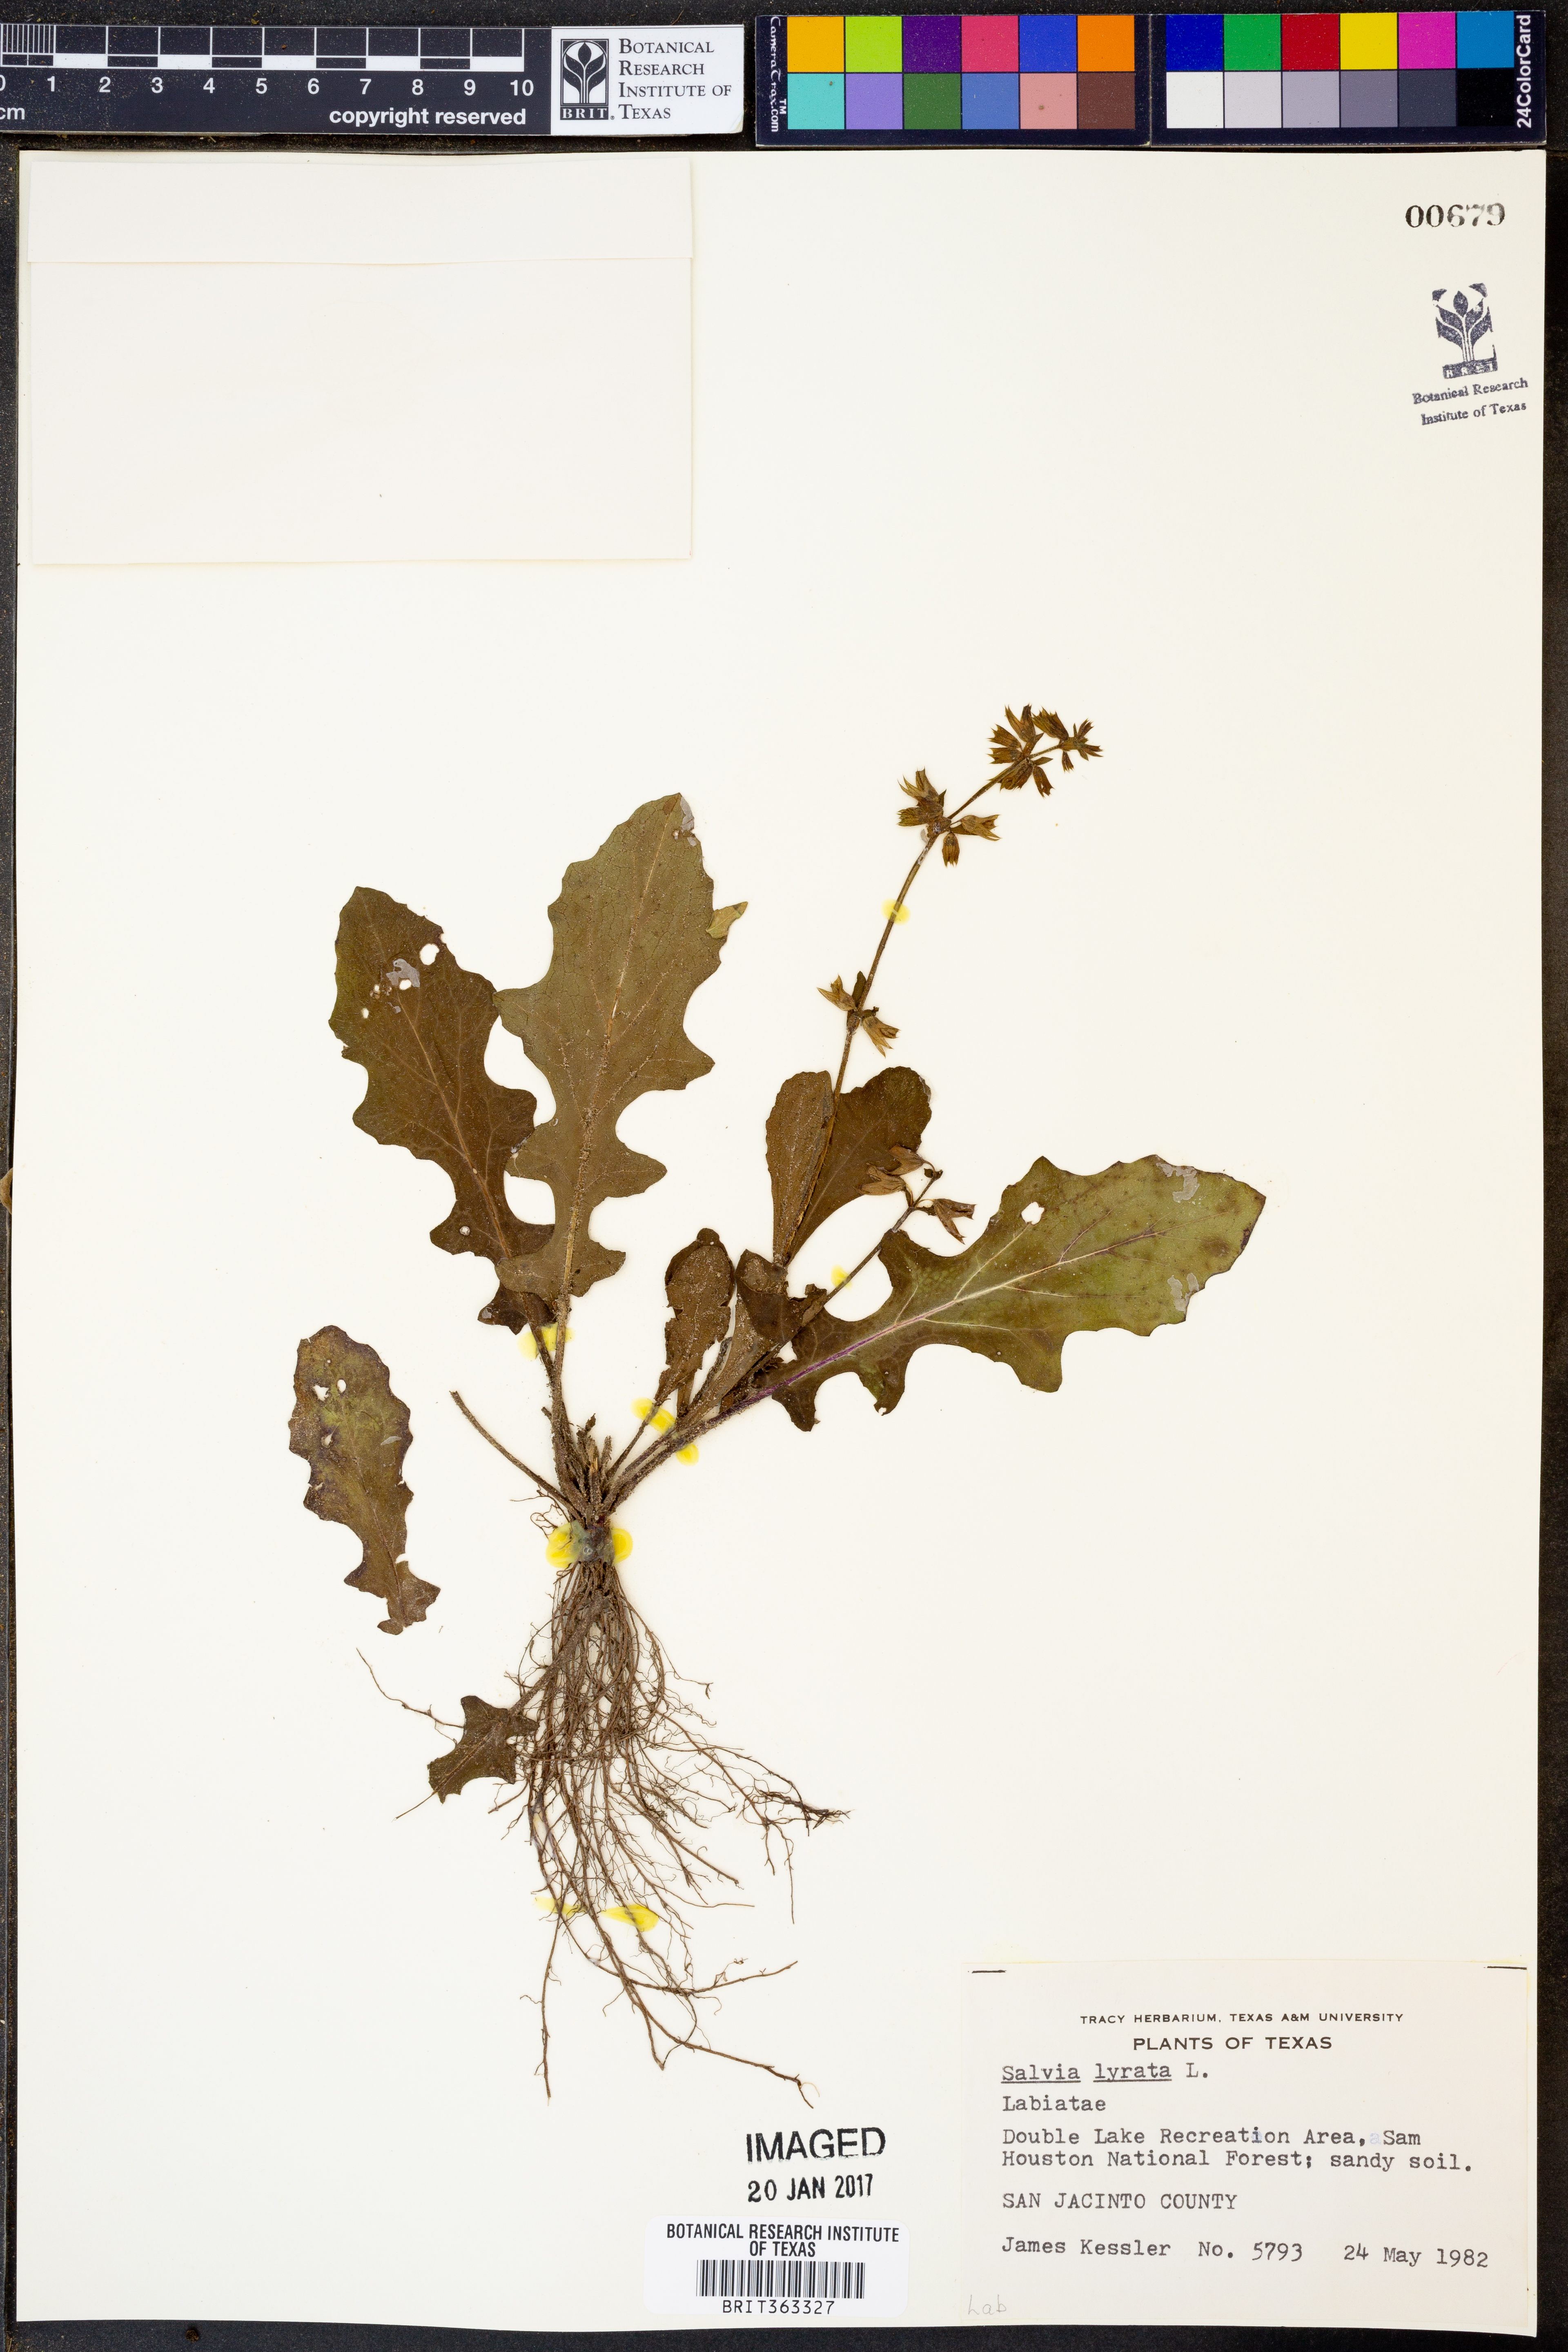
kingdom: Plantae
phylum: Tracheophyta
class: Magnoliopsida
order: Lamiales
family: Lamiaceae
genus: Salvia
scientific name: Salvia lyrata
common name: Cancerweed
